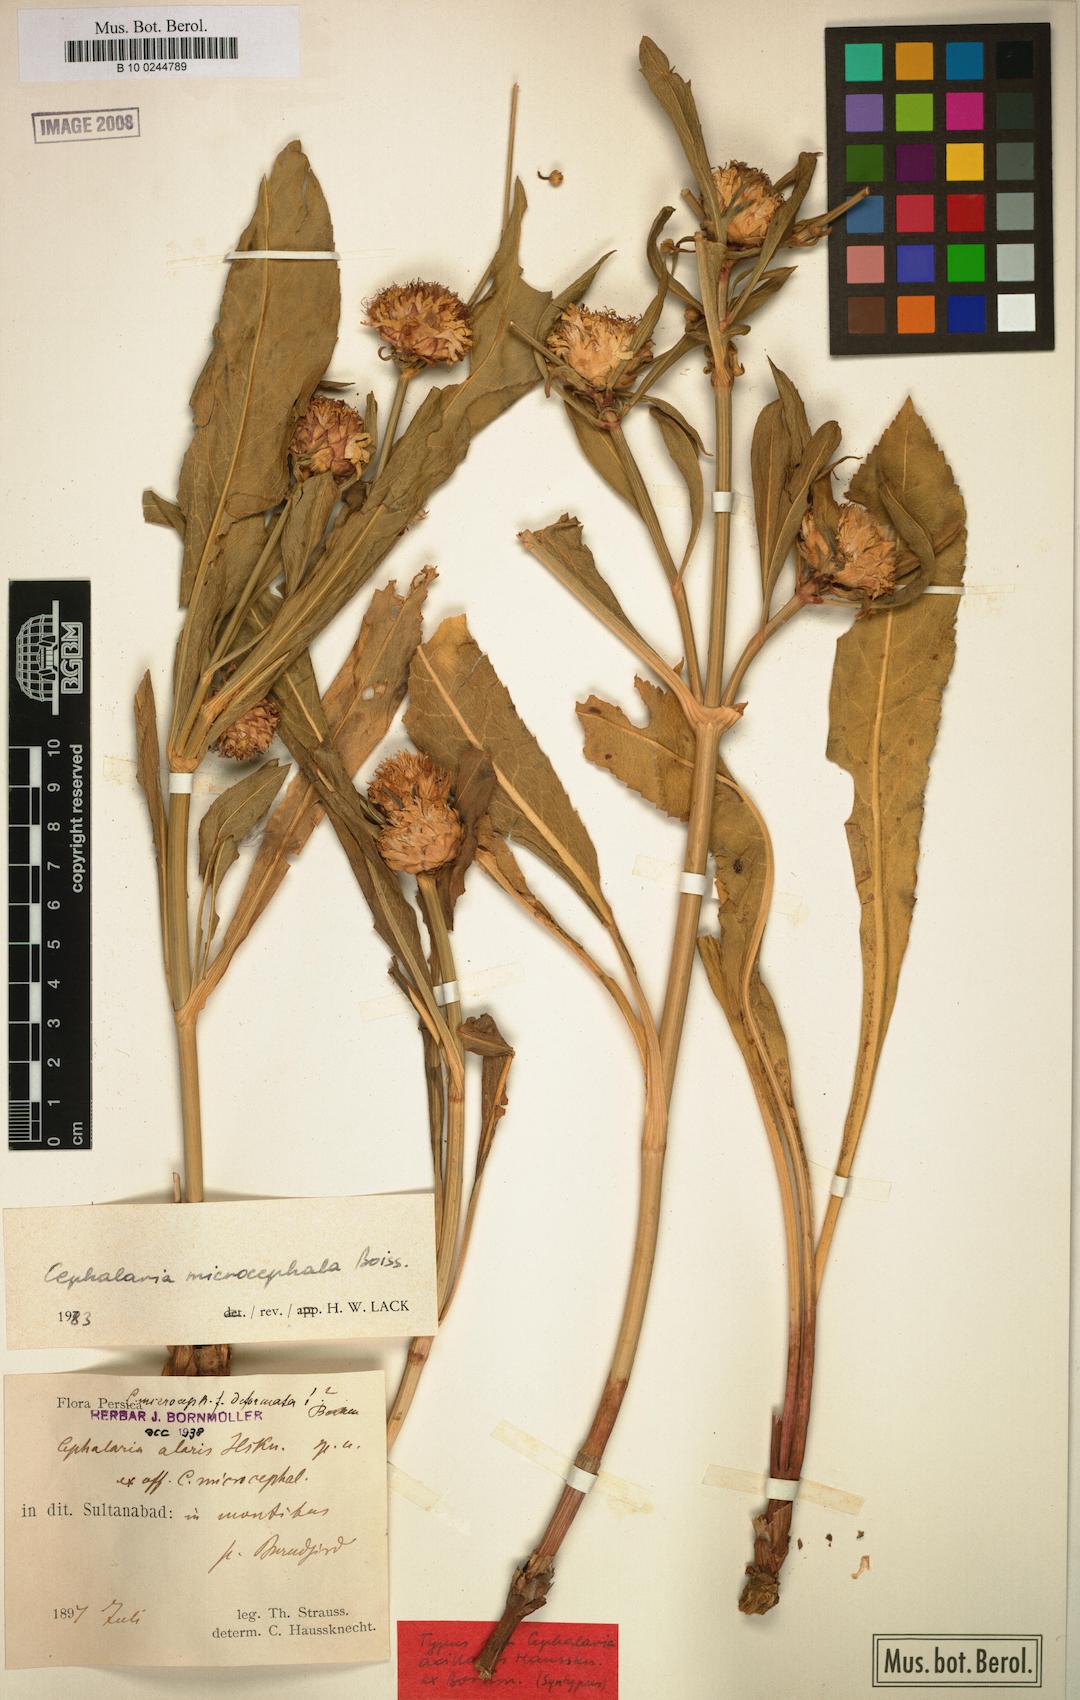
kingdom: Plantae
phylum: Tracheophyta
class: Magnoliopsida
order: Dipsacales
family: Caprifoliaceae
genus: Cephalaria
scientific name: Cephalaria microcephala
